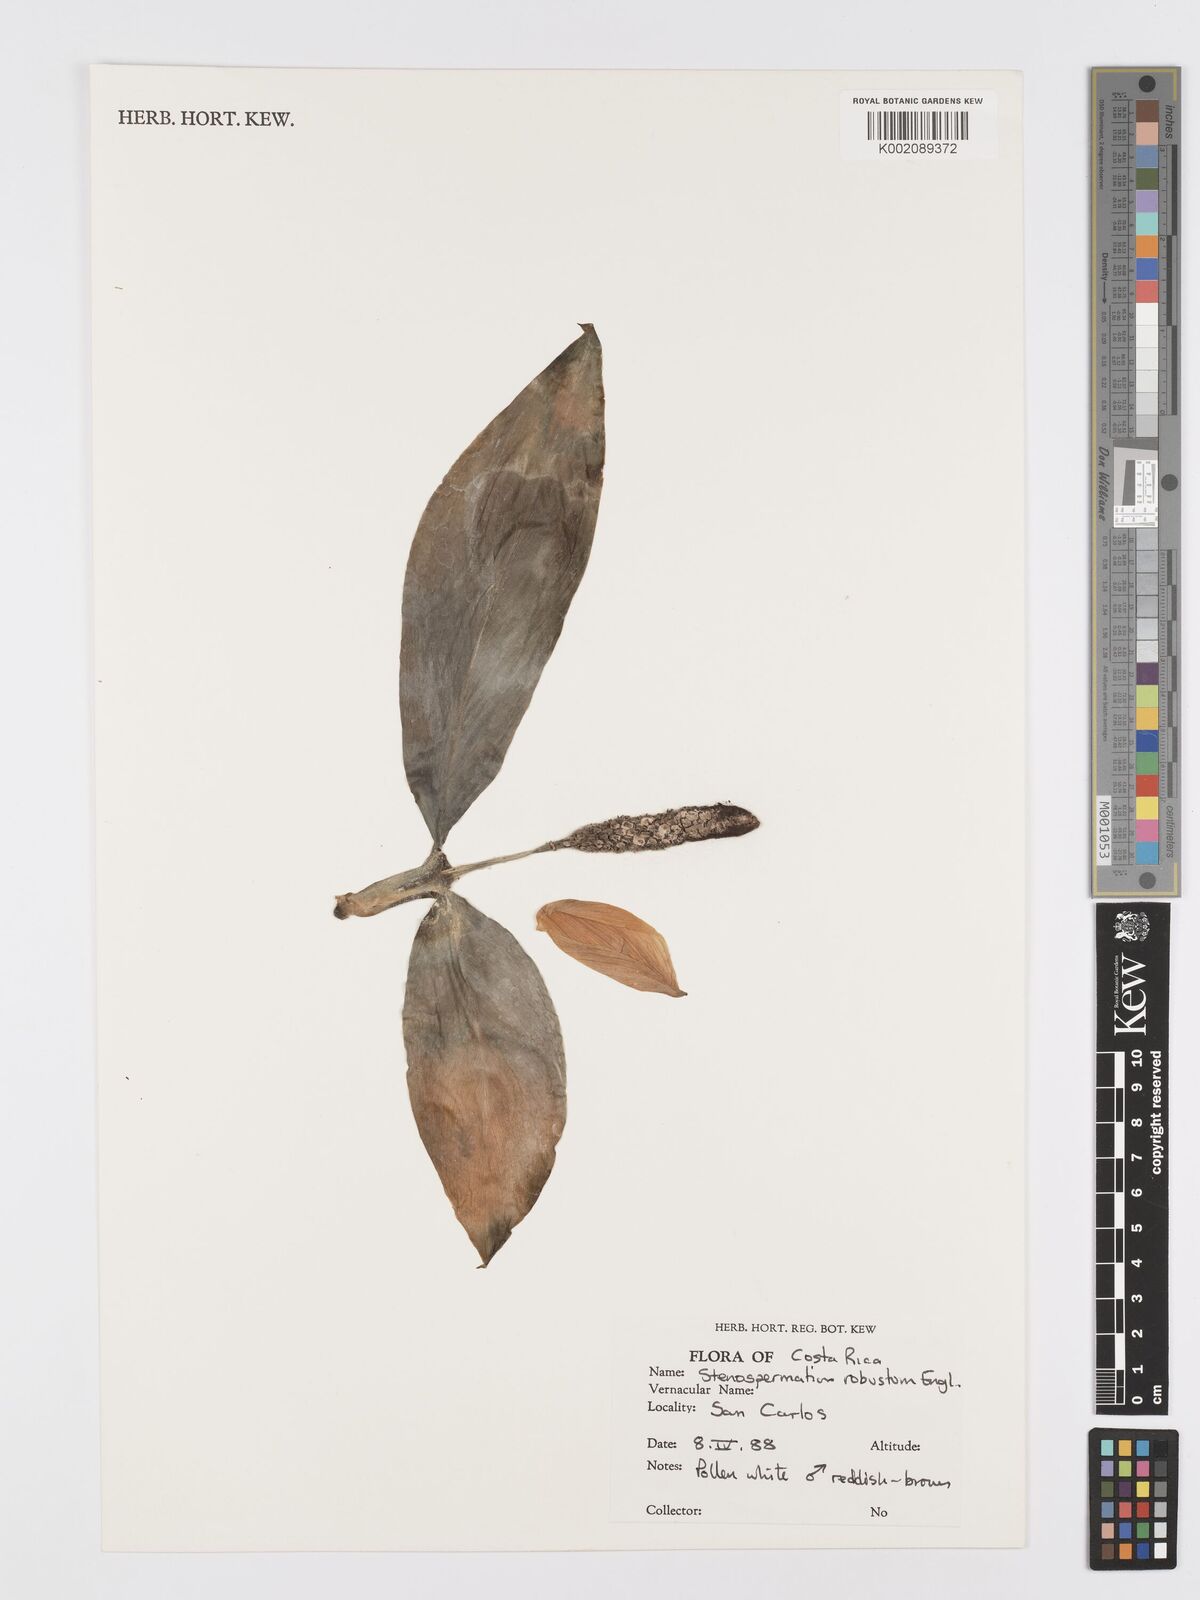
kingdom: Plantae
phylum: Tracheophyta
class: Liliopsida
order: Alismatales
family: Araceae
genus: Stenospermation
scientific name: Stenospermation robustum
